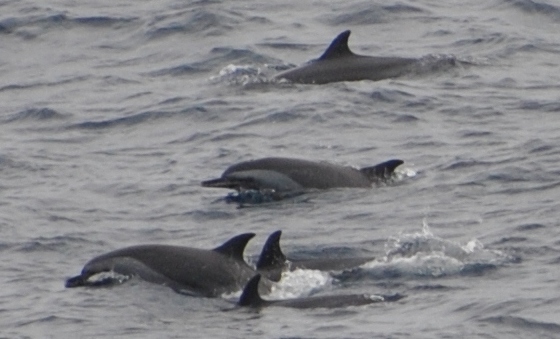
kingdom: Animalia
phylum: Chordata
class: Mammalia
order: Cetacea
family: Delphinidae
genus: Stenella
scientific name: Stenella attenuata
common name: Pantropical Spotted Dolphin
